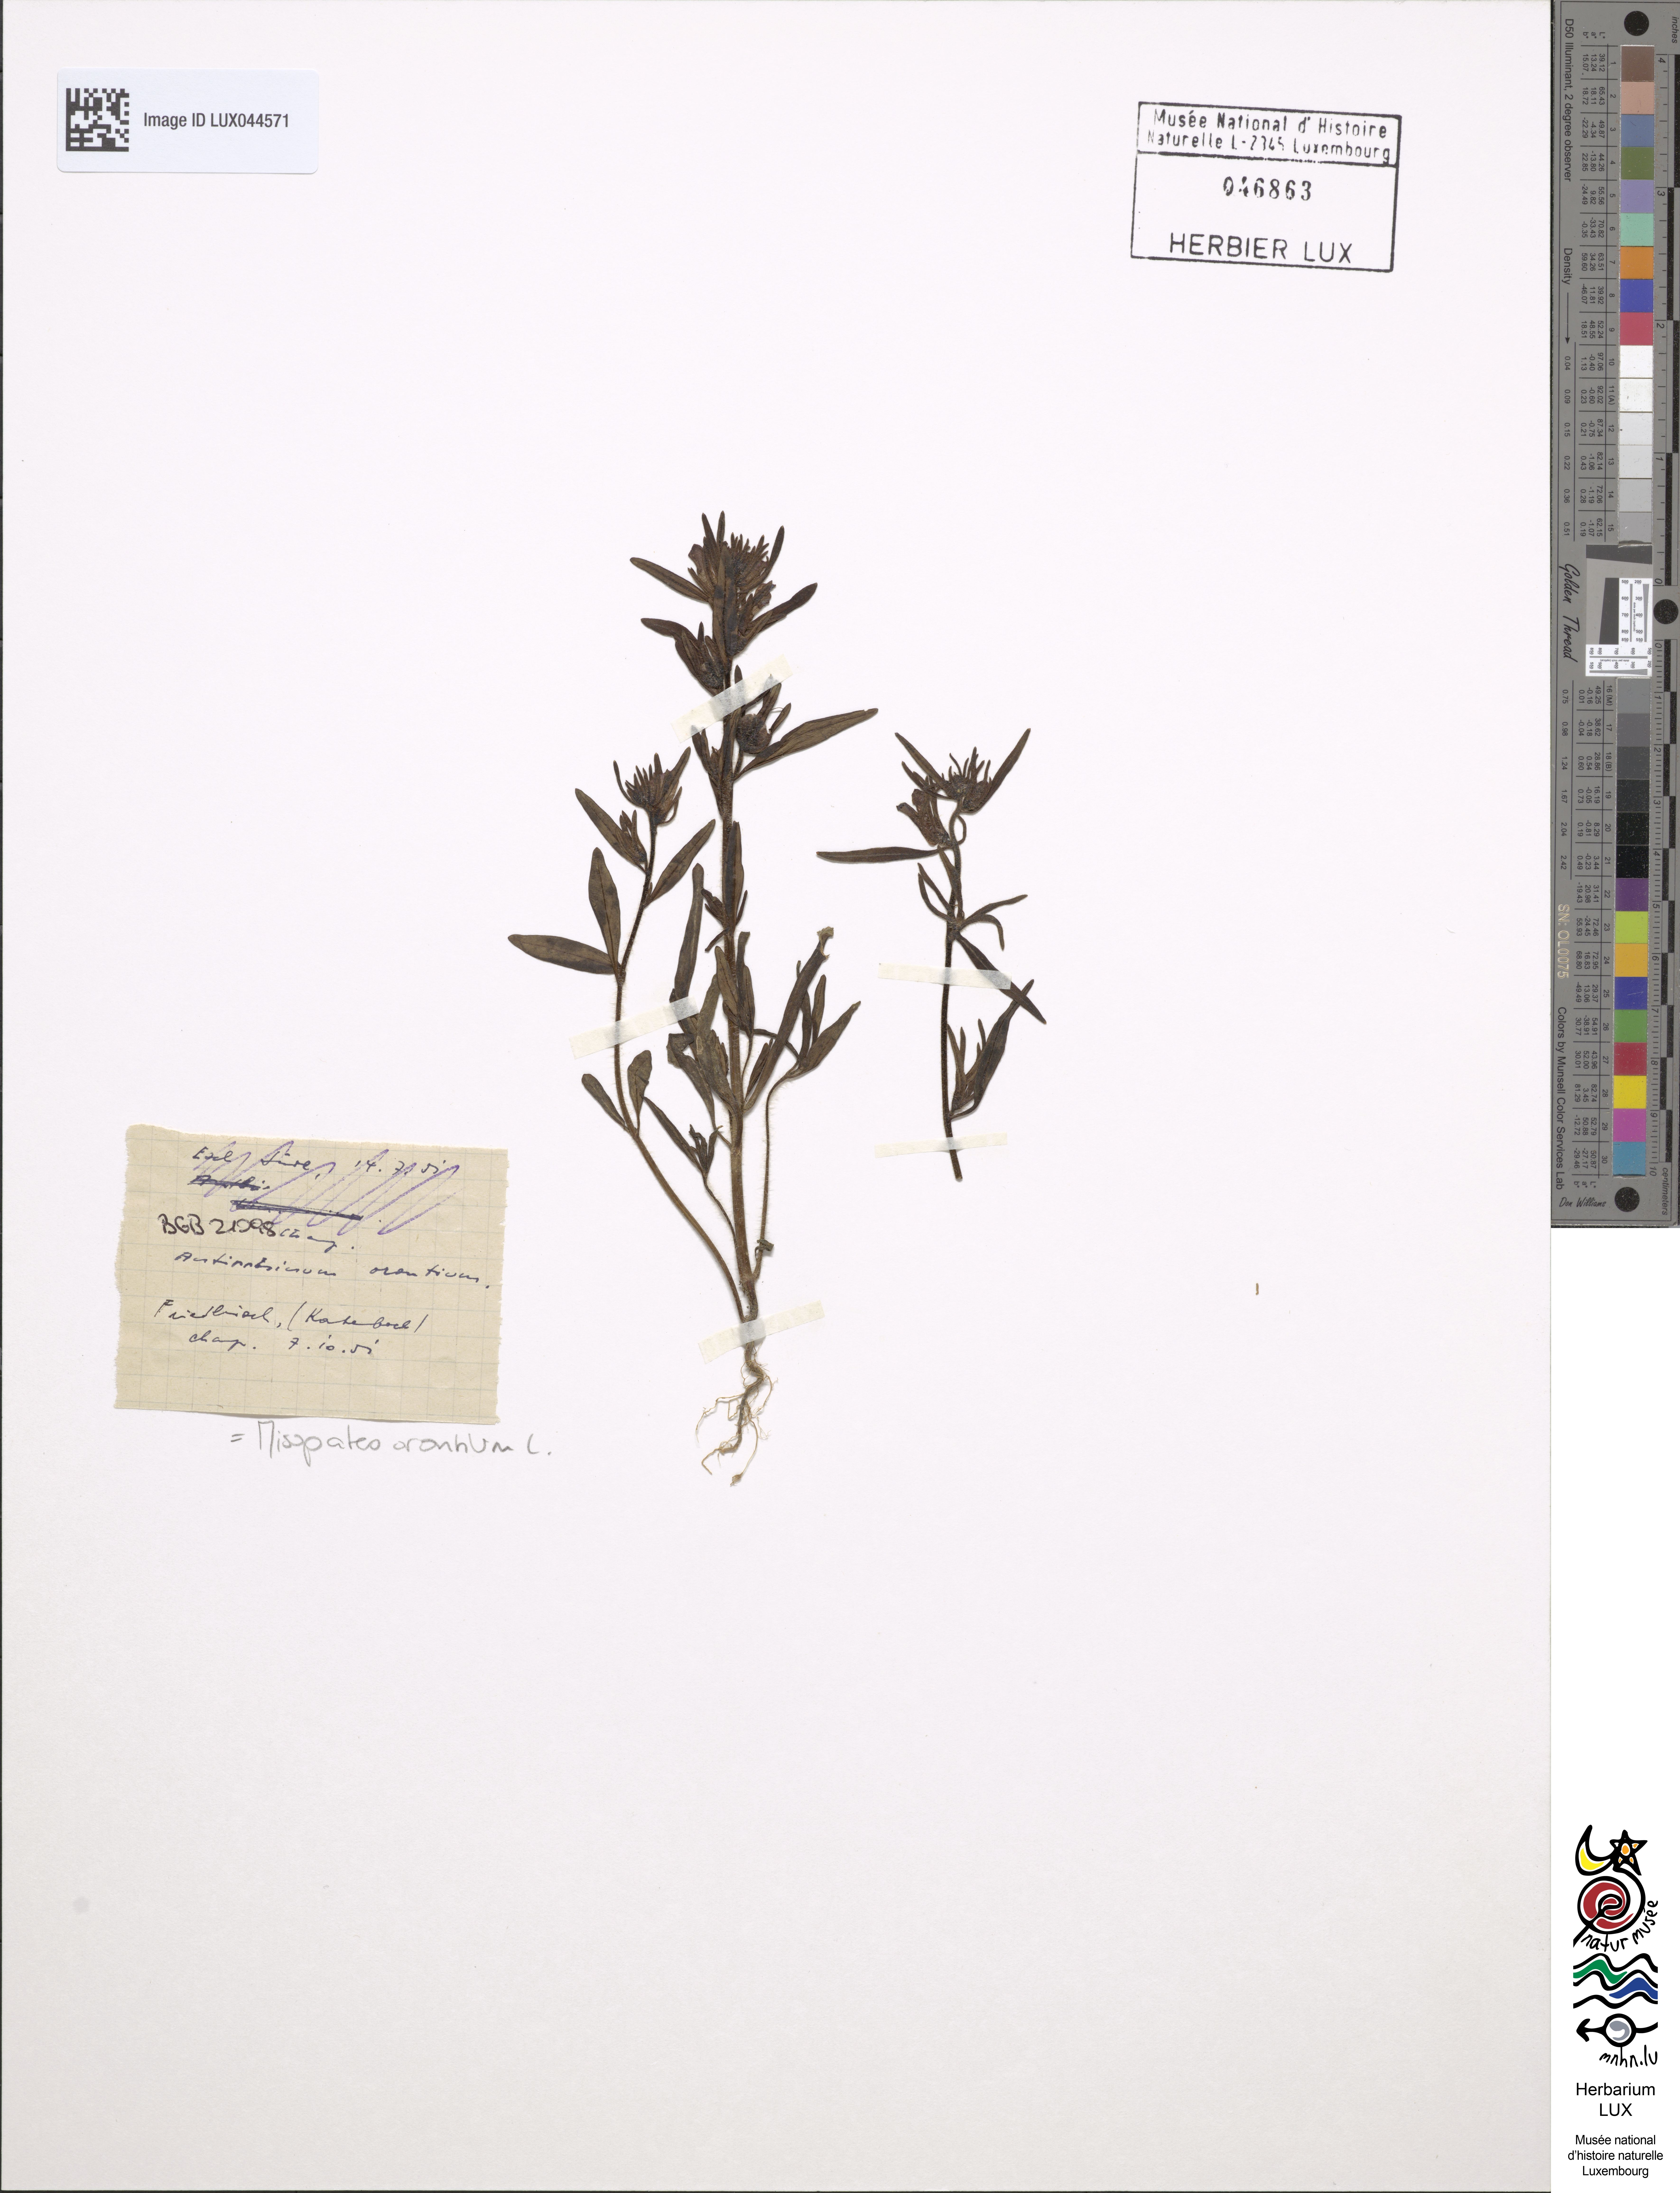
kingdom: Plantae
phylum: Tracheophyta
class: Magnoliopsida
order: Lamiales
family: Plantaginaceae
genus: Misopates
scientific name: Misopates orontium
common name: Weasel's-snout
